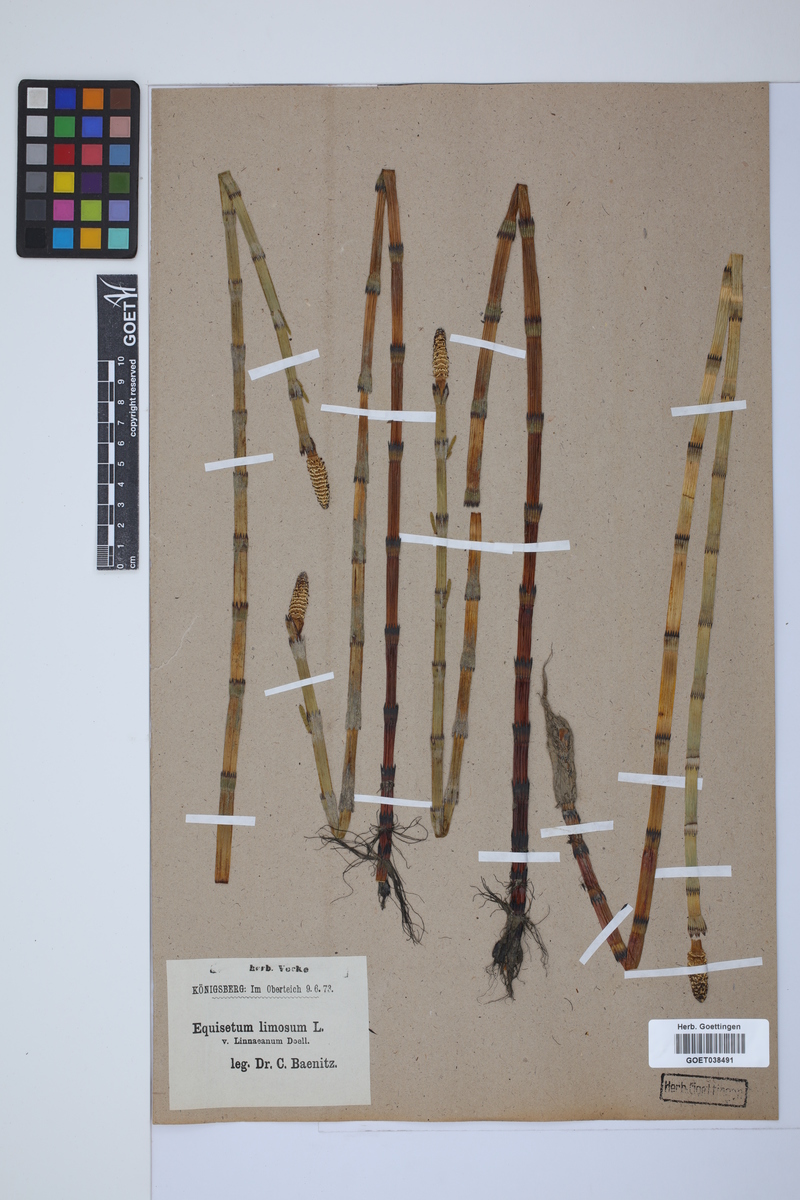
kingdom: Plantae
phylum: Tracheophyta
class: Polypodiopsida
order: Equisetales
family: Equisetaceae
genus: Equisetum
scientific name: Equisetum fluviatile
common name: Water horsetail
